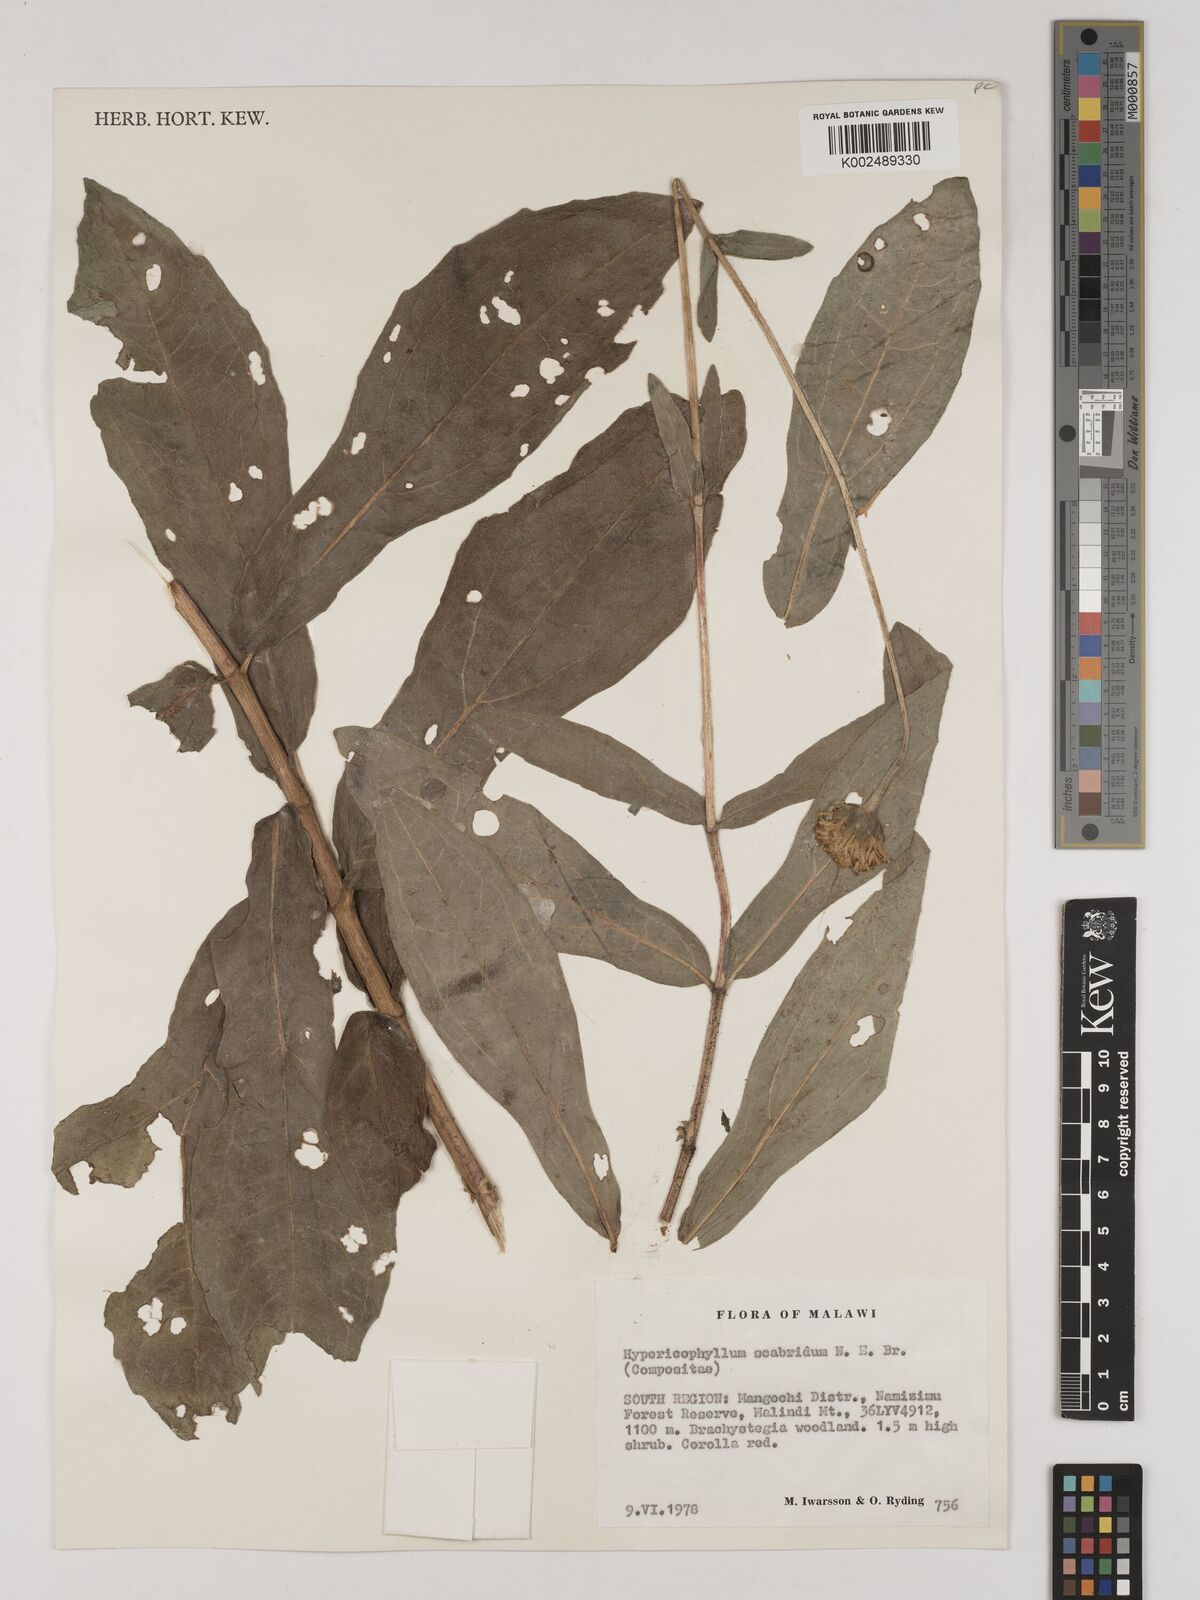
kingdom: Plantae
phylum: Tracheophyta
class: Magnoliopsida
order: Asterales
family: Asteraceae
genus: Hypericophyllum
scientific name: Hypericophyllum angolense
